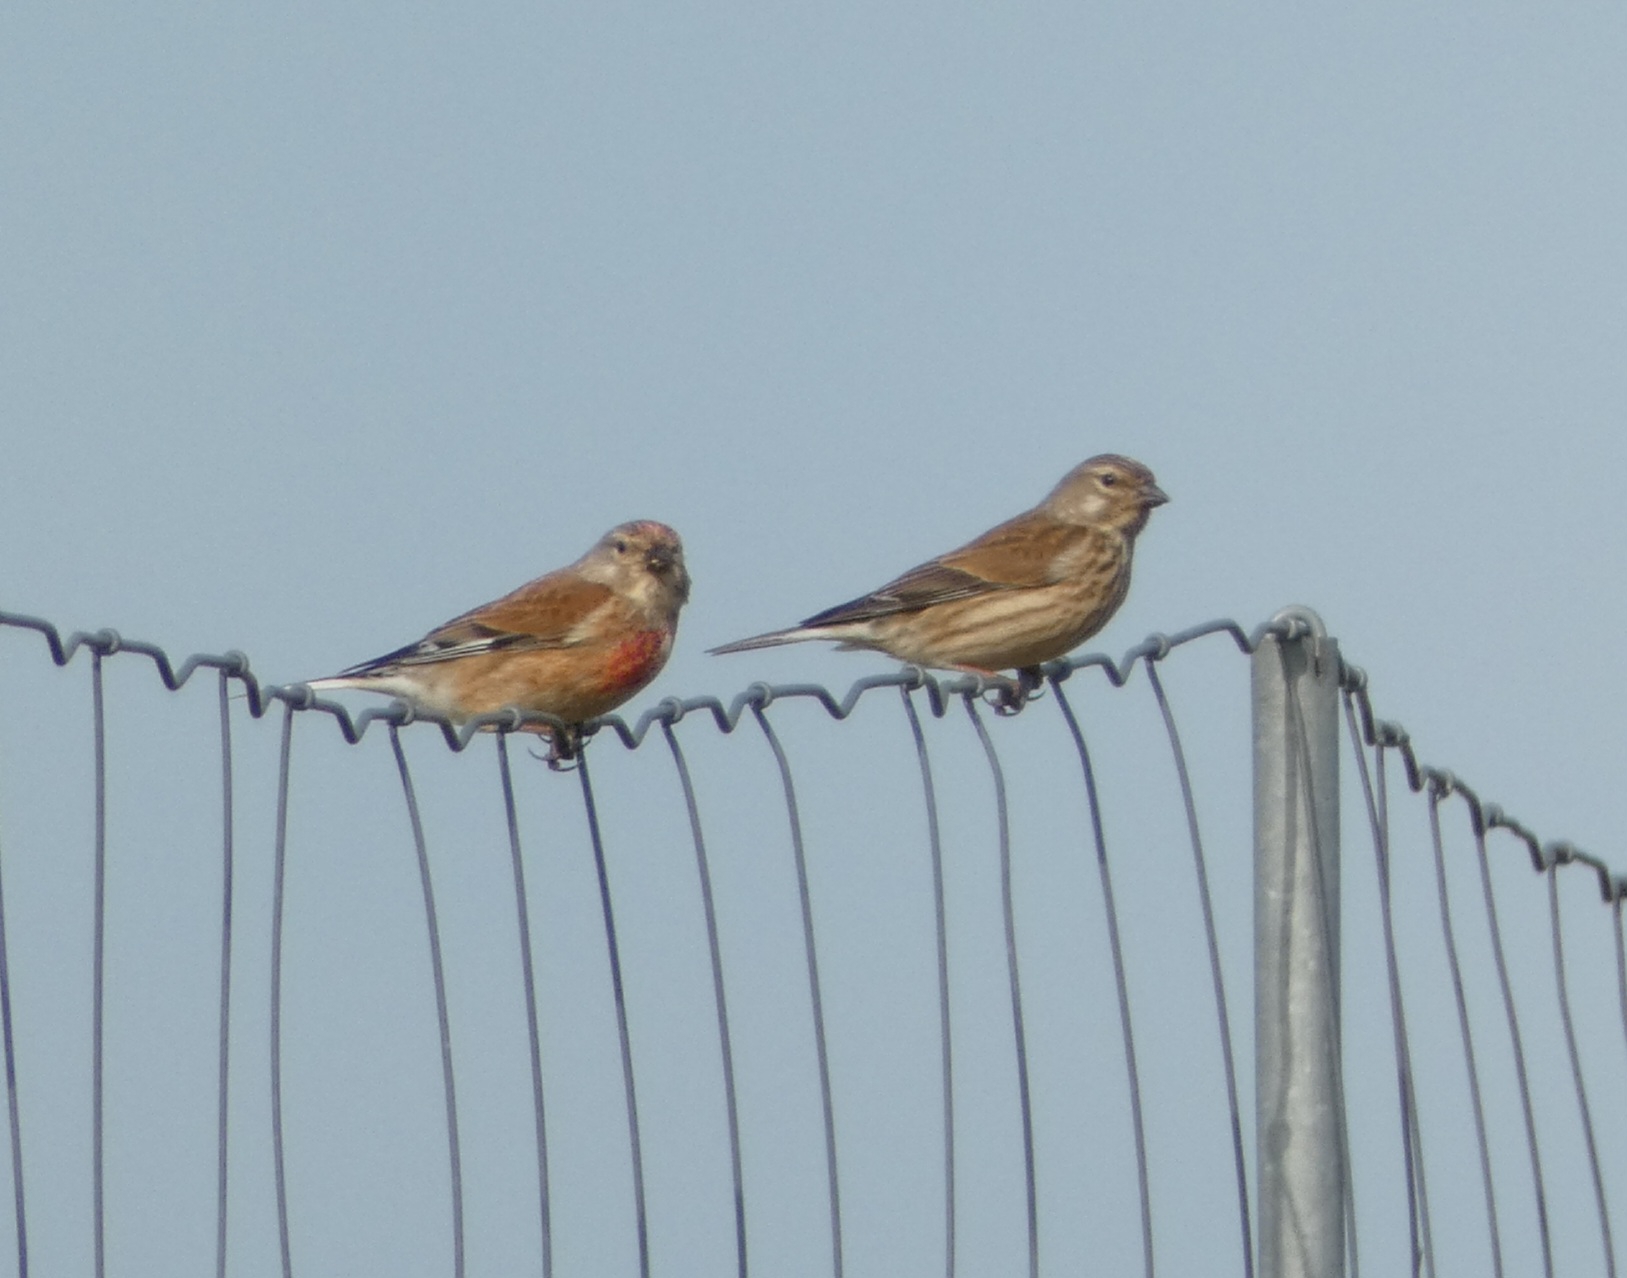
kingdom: Animalia
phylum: Chordata
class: Aves
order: Passeriformes
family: Fringillidae
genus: Linaria
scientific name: Linaria cannabina
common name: Tornirisk
